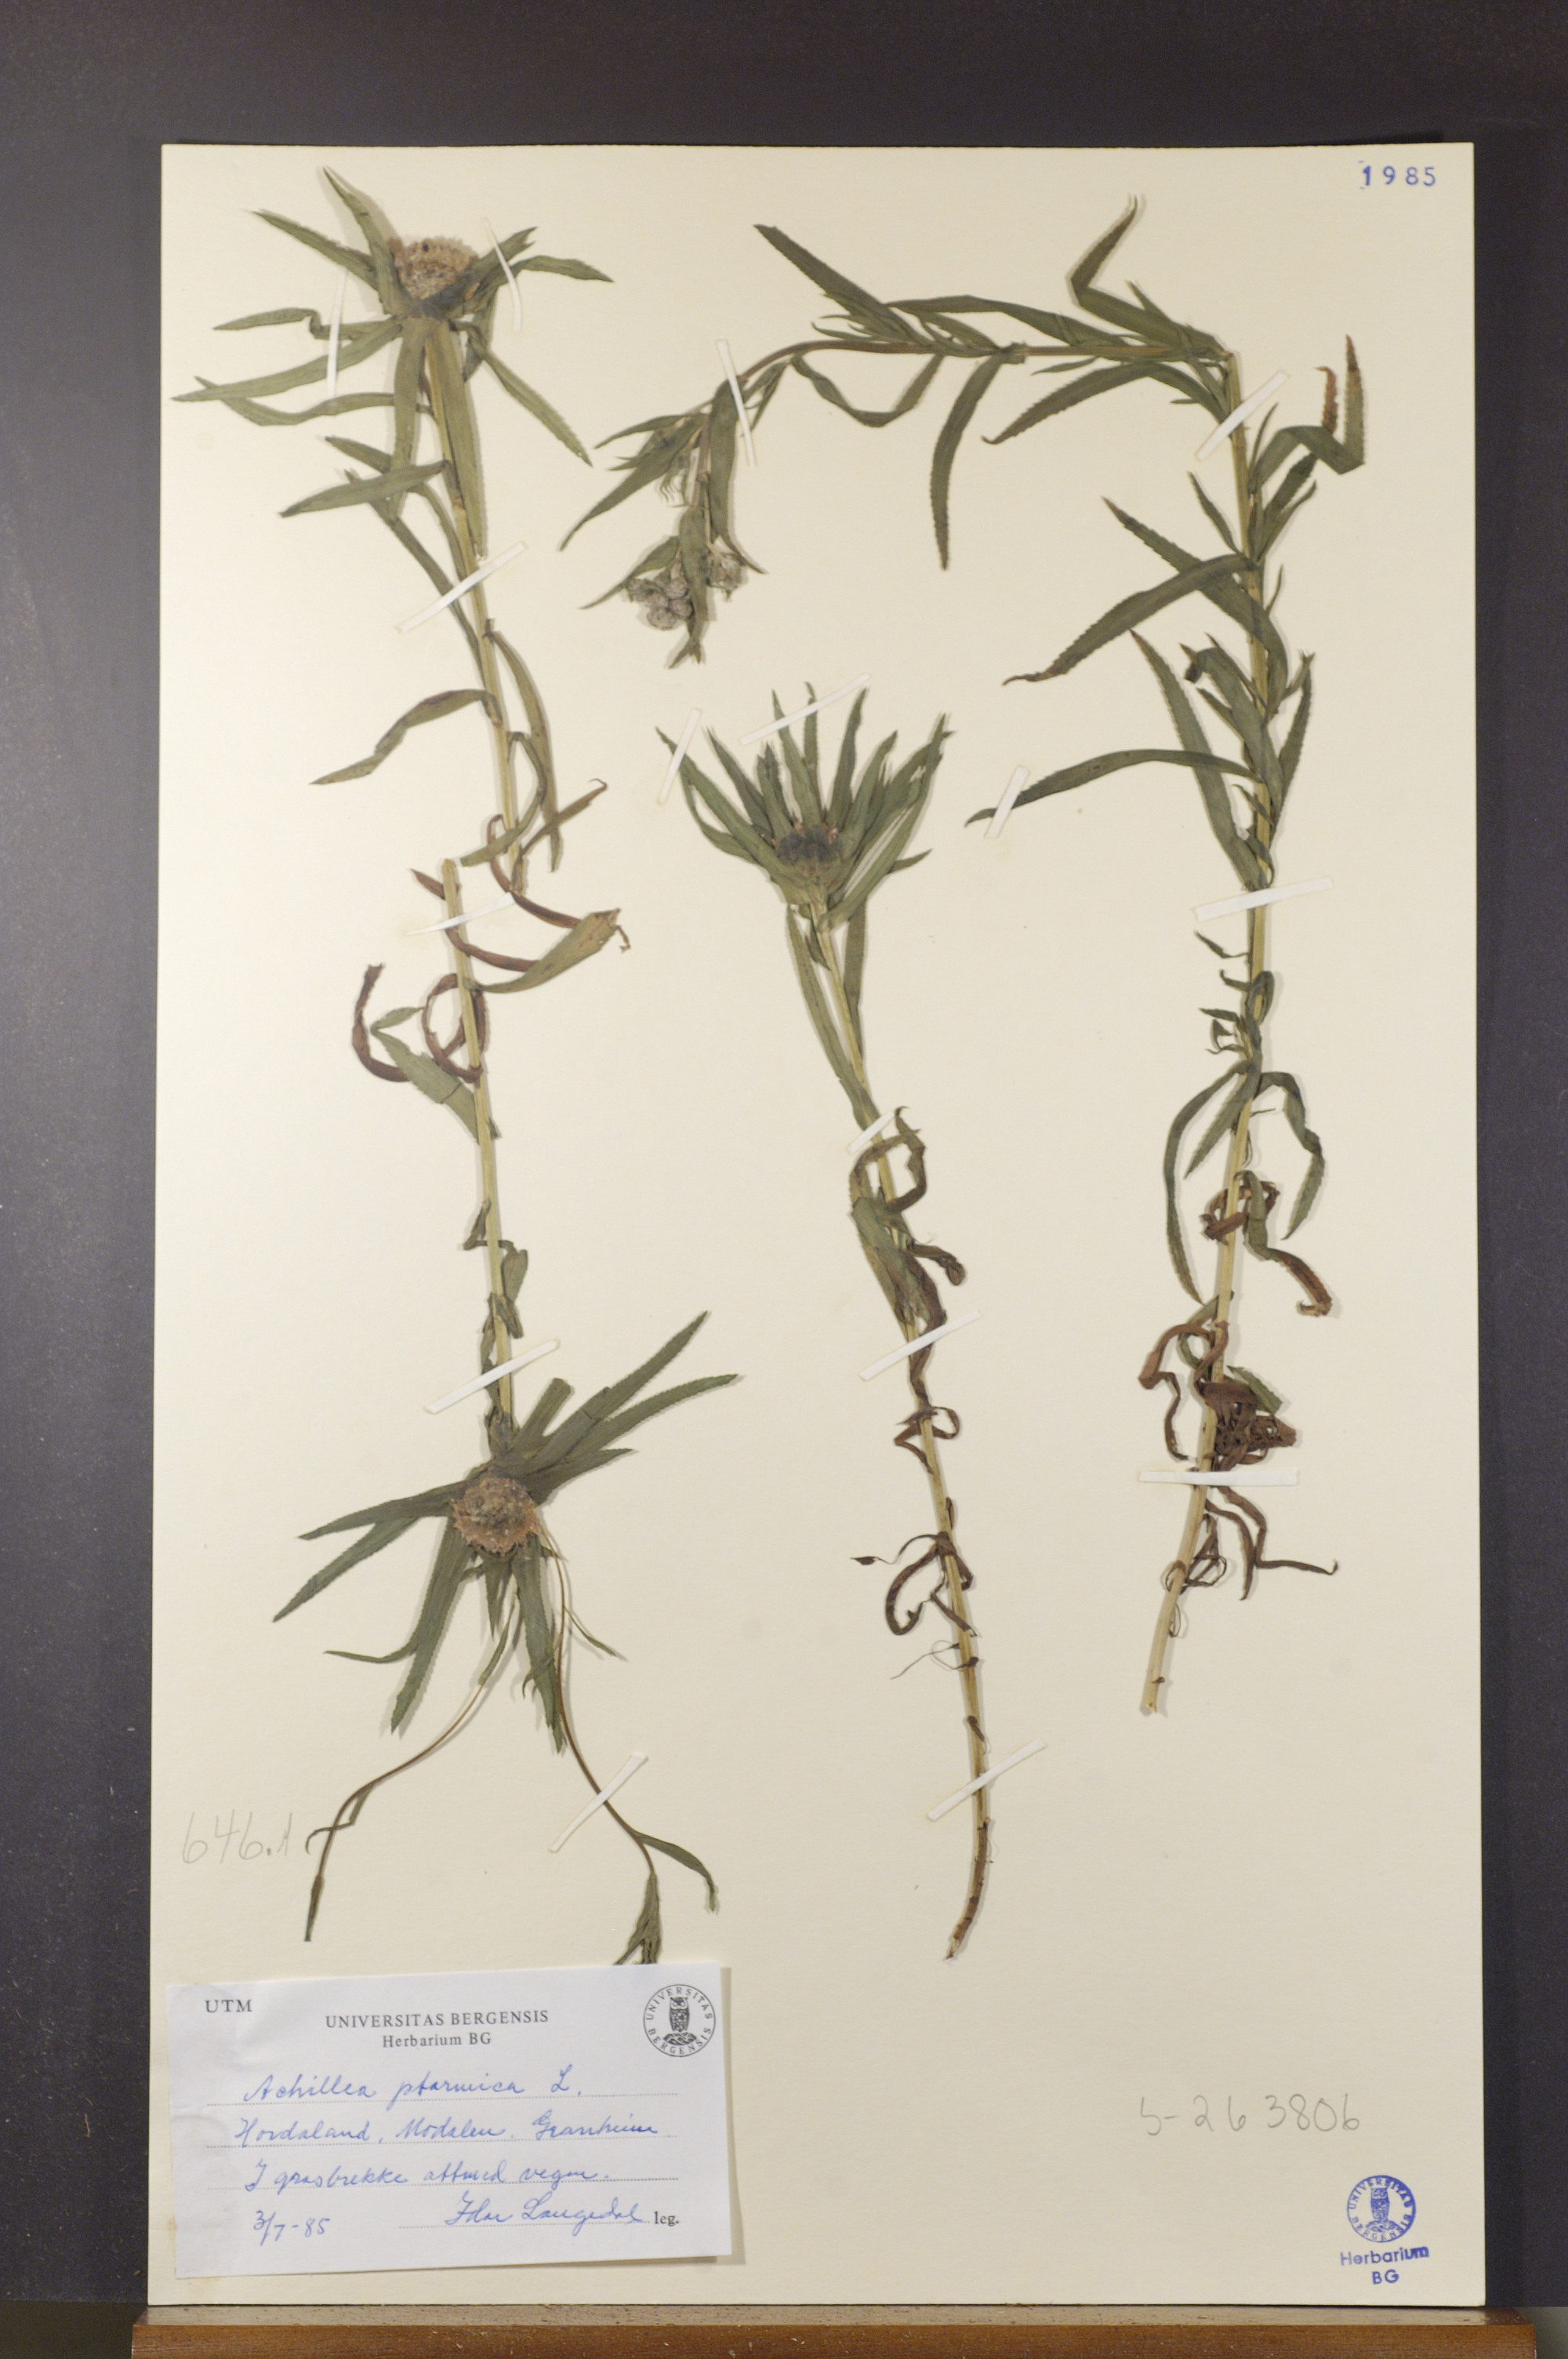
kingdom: Plantae
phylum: Tracheophyta
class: Magnoliopsida
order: Asterales
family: Asteraceae
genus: Achillea
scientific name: Achillea ptarmica
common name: Sneezeweed
